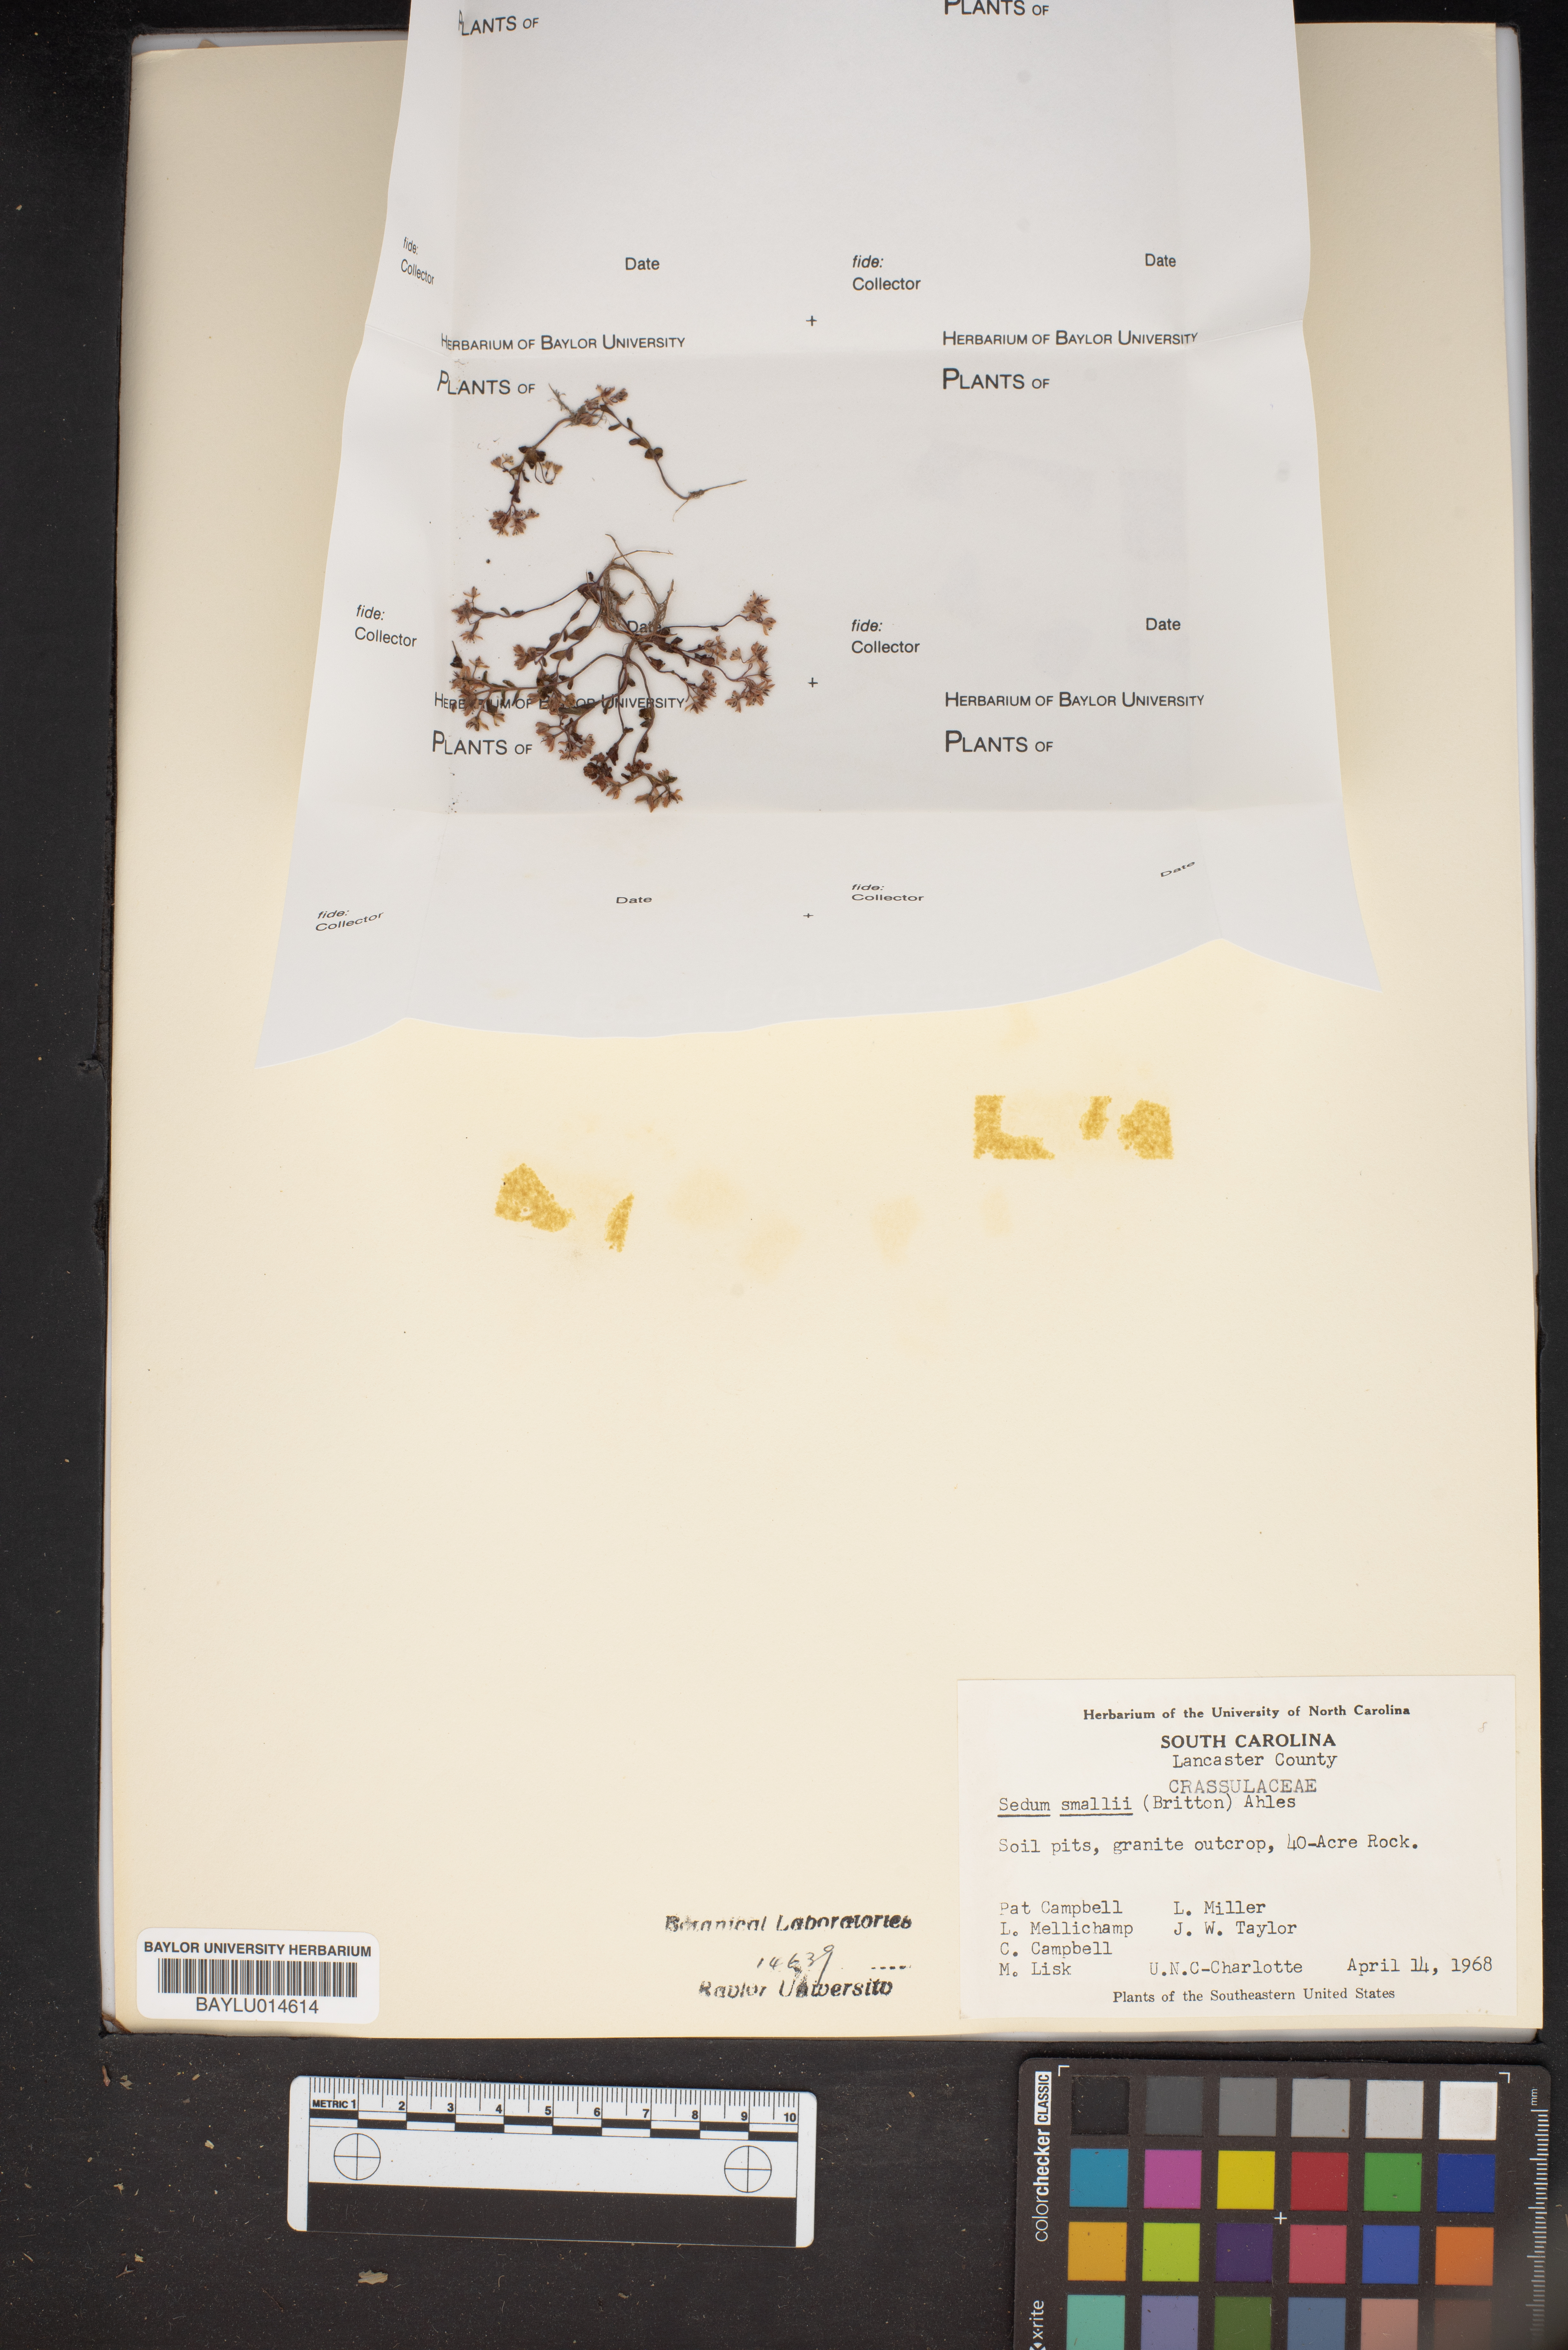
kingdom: Plantae
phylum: Tracheophyta
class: Magnoliopsida
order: Saxifragales
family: Crassulaceae
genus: Sedum
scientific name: Sedum smallii
